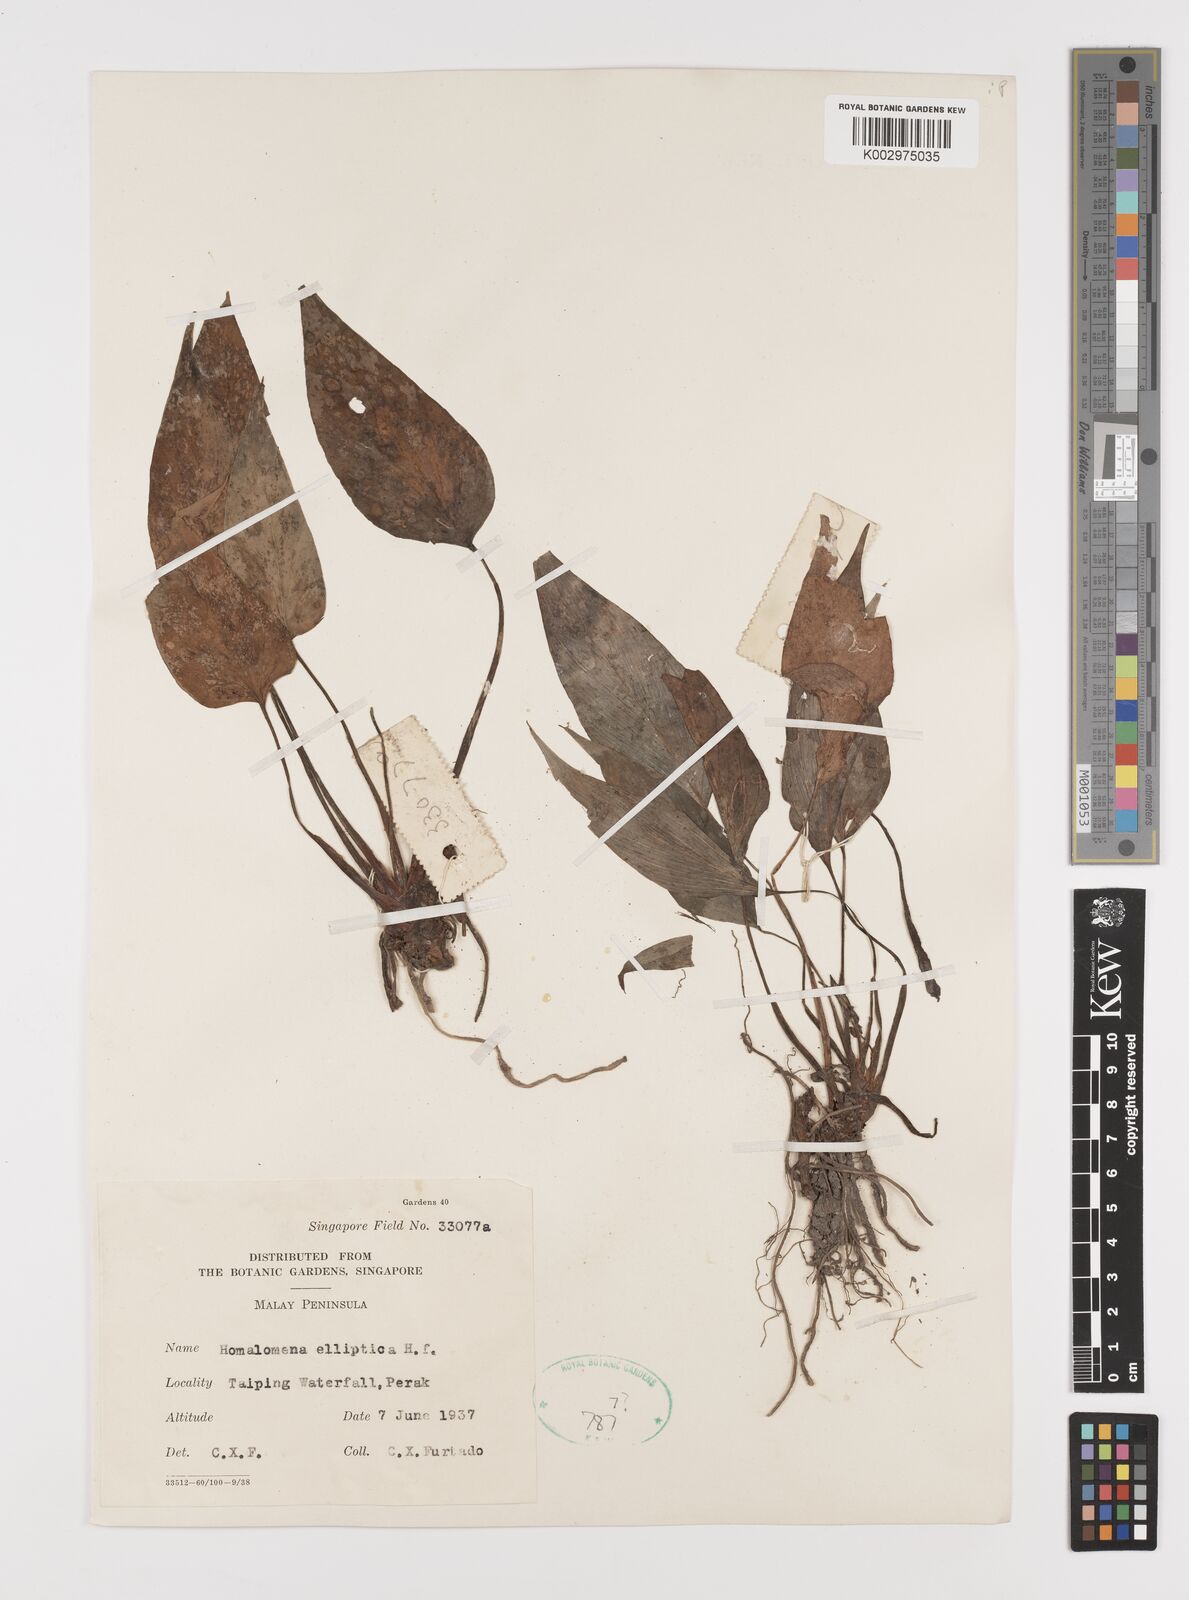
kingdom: Plantae
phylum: Tracheophyta
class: Liliopsida
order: Alismatales
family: Araceae
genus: Homalomena
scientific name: Homalomena griffithii
